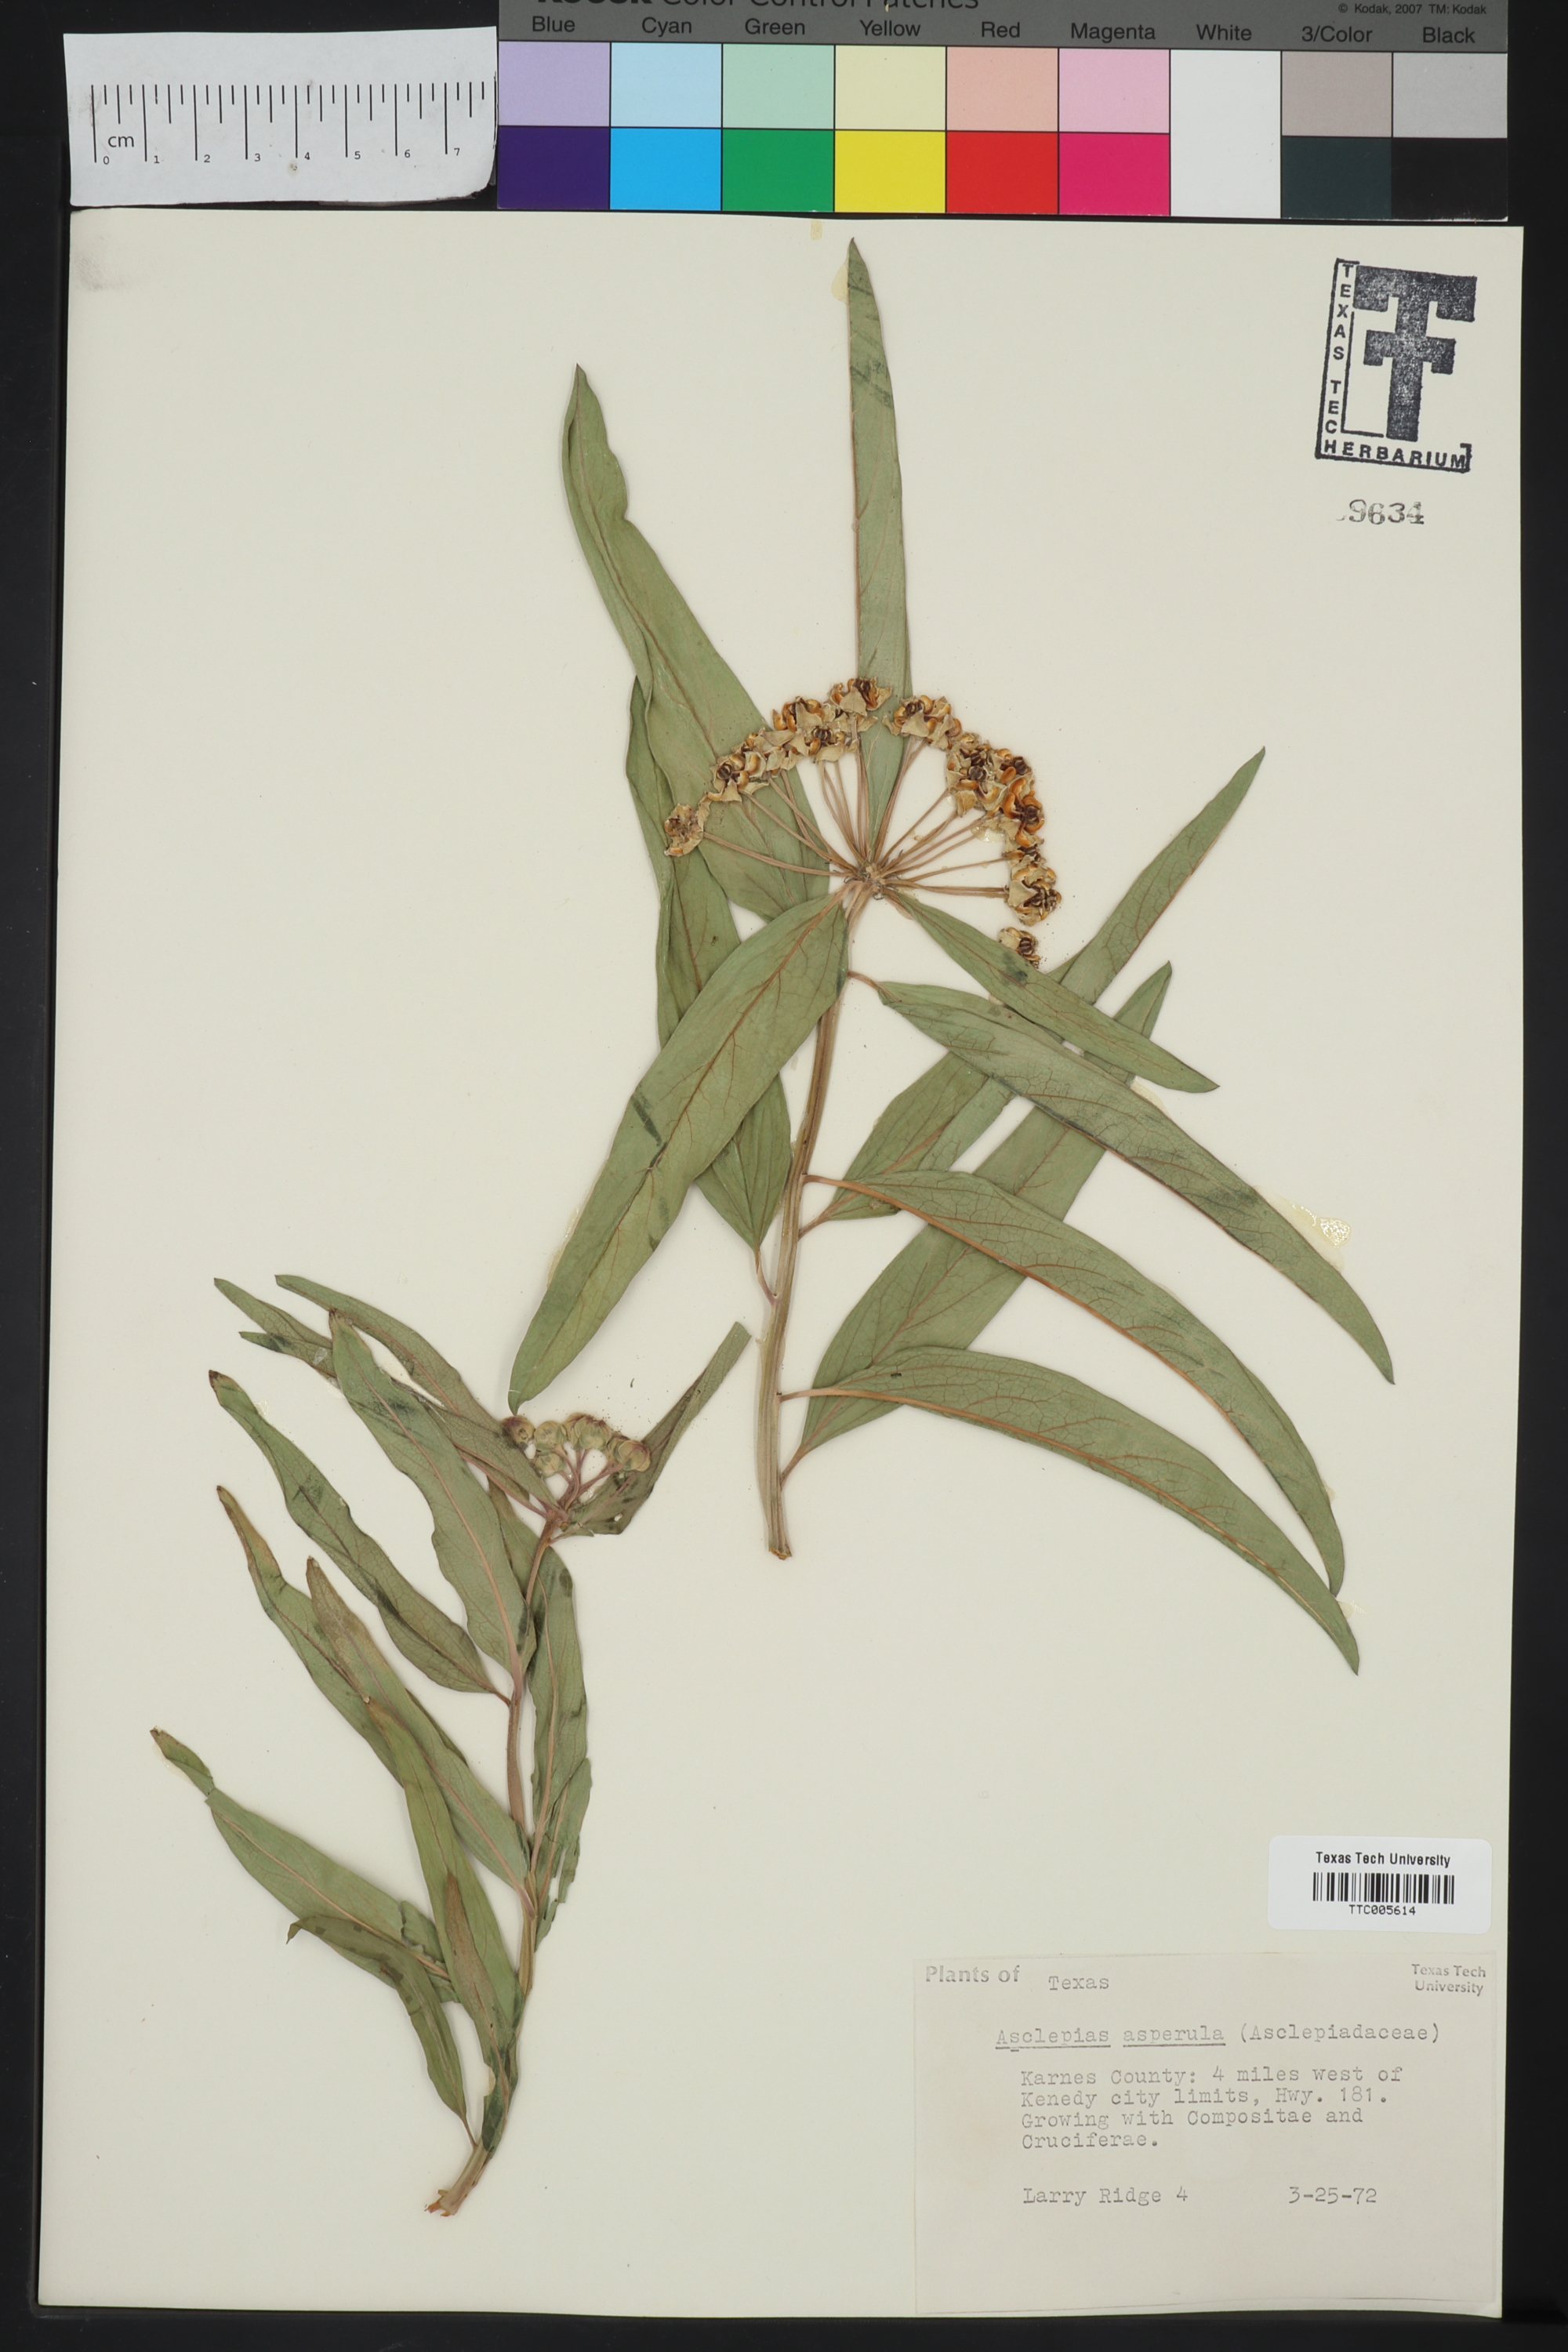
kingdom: Plantae
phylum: Tracheophyta
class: Magnoliopsida
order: Gentianales
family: Apocynaceae
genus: Asclepias
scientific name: Asclepias asperula
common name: Antelope horns
